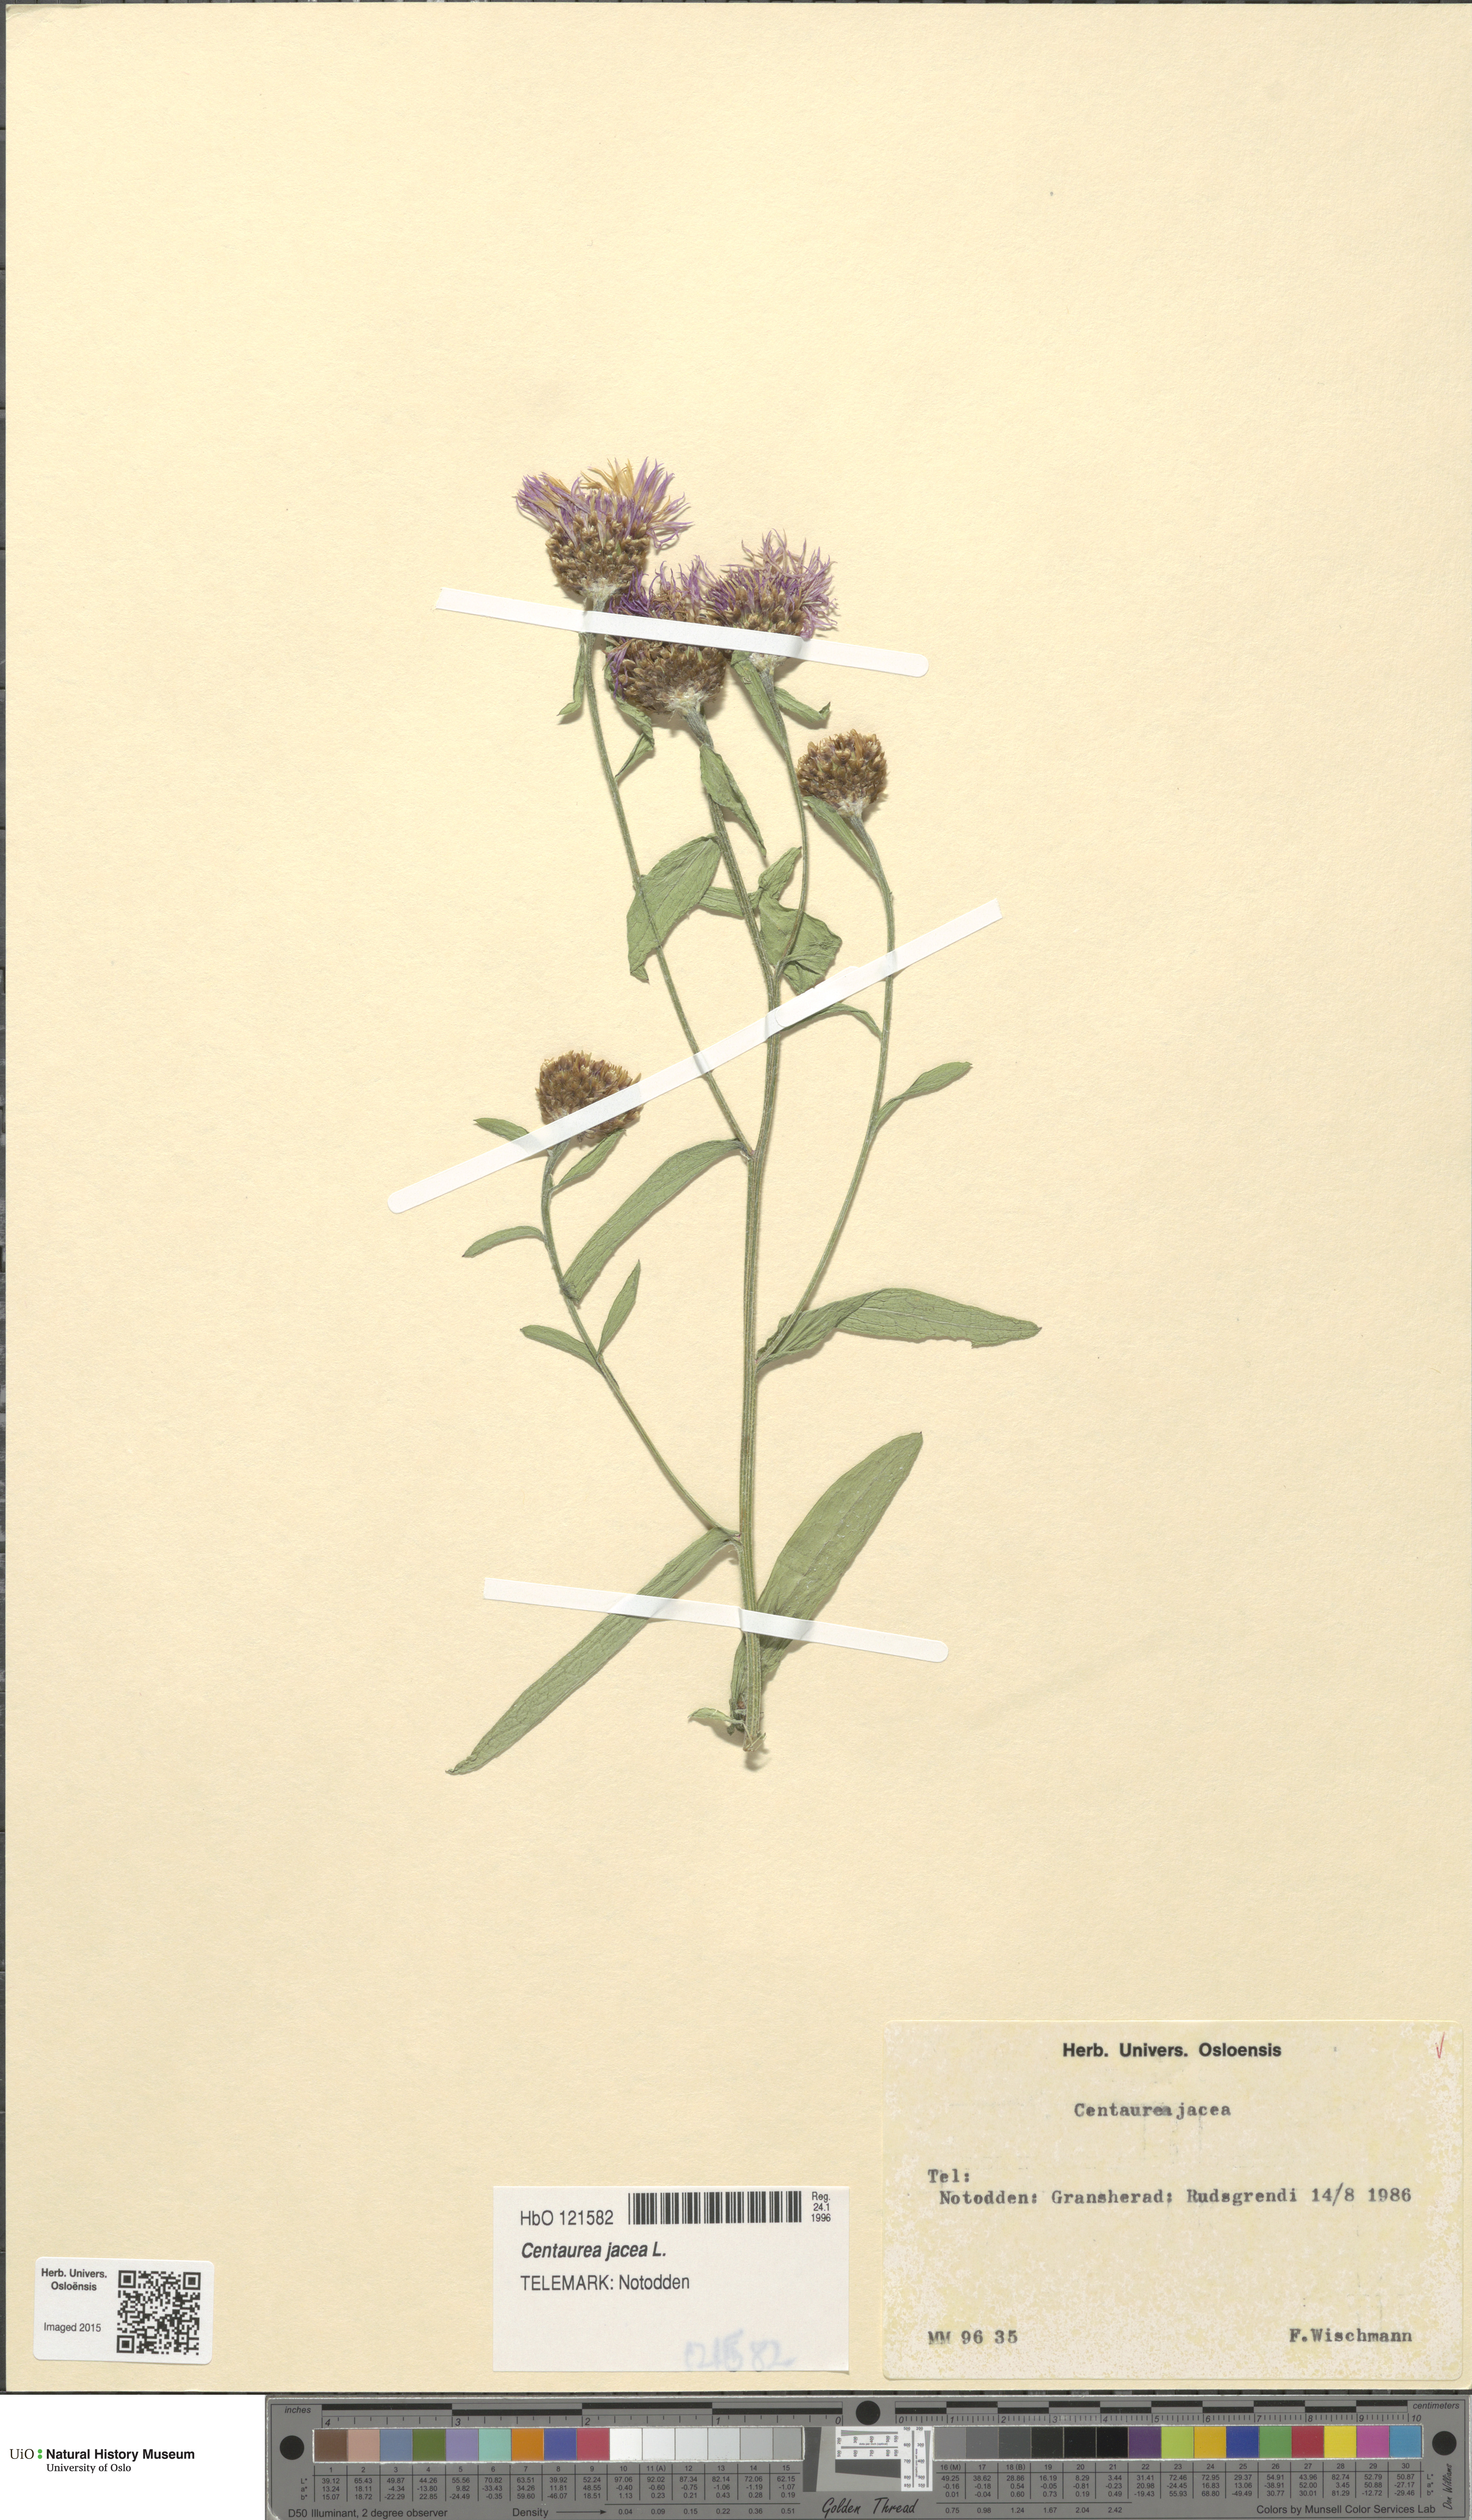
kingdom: Plantae
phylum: Tracheophyta
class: Magnoliopsida
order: Asterales
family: Asteraceae
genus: Centaurea
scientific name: Centaurea jacea
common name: Brown knapweed
